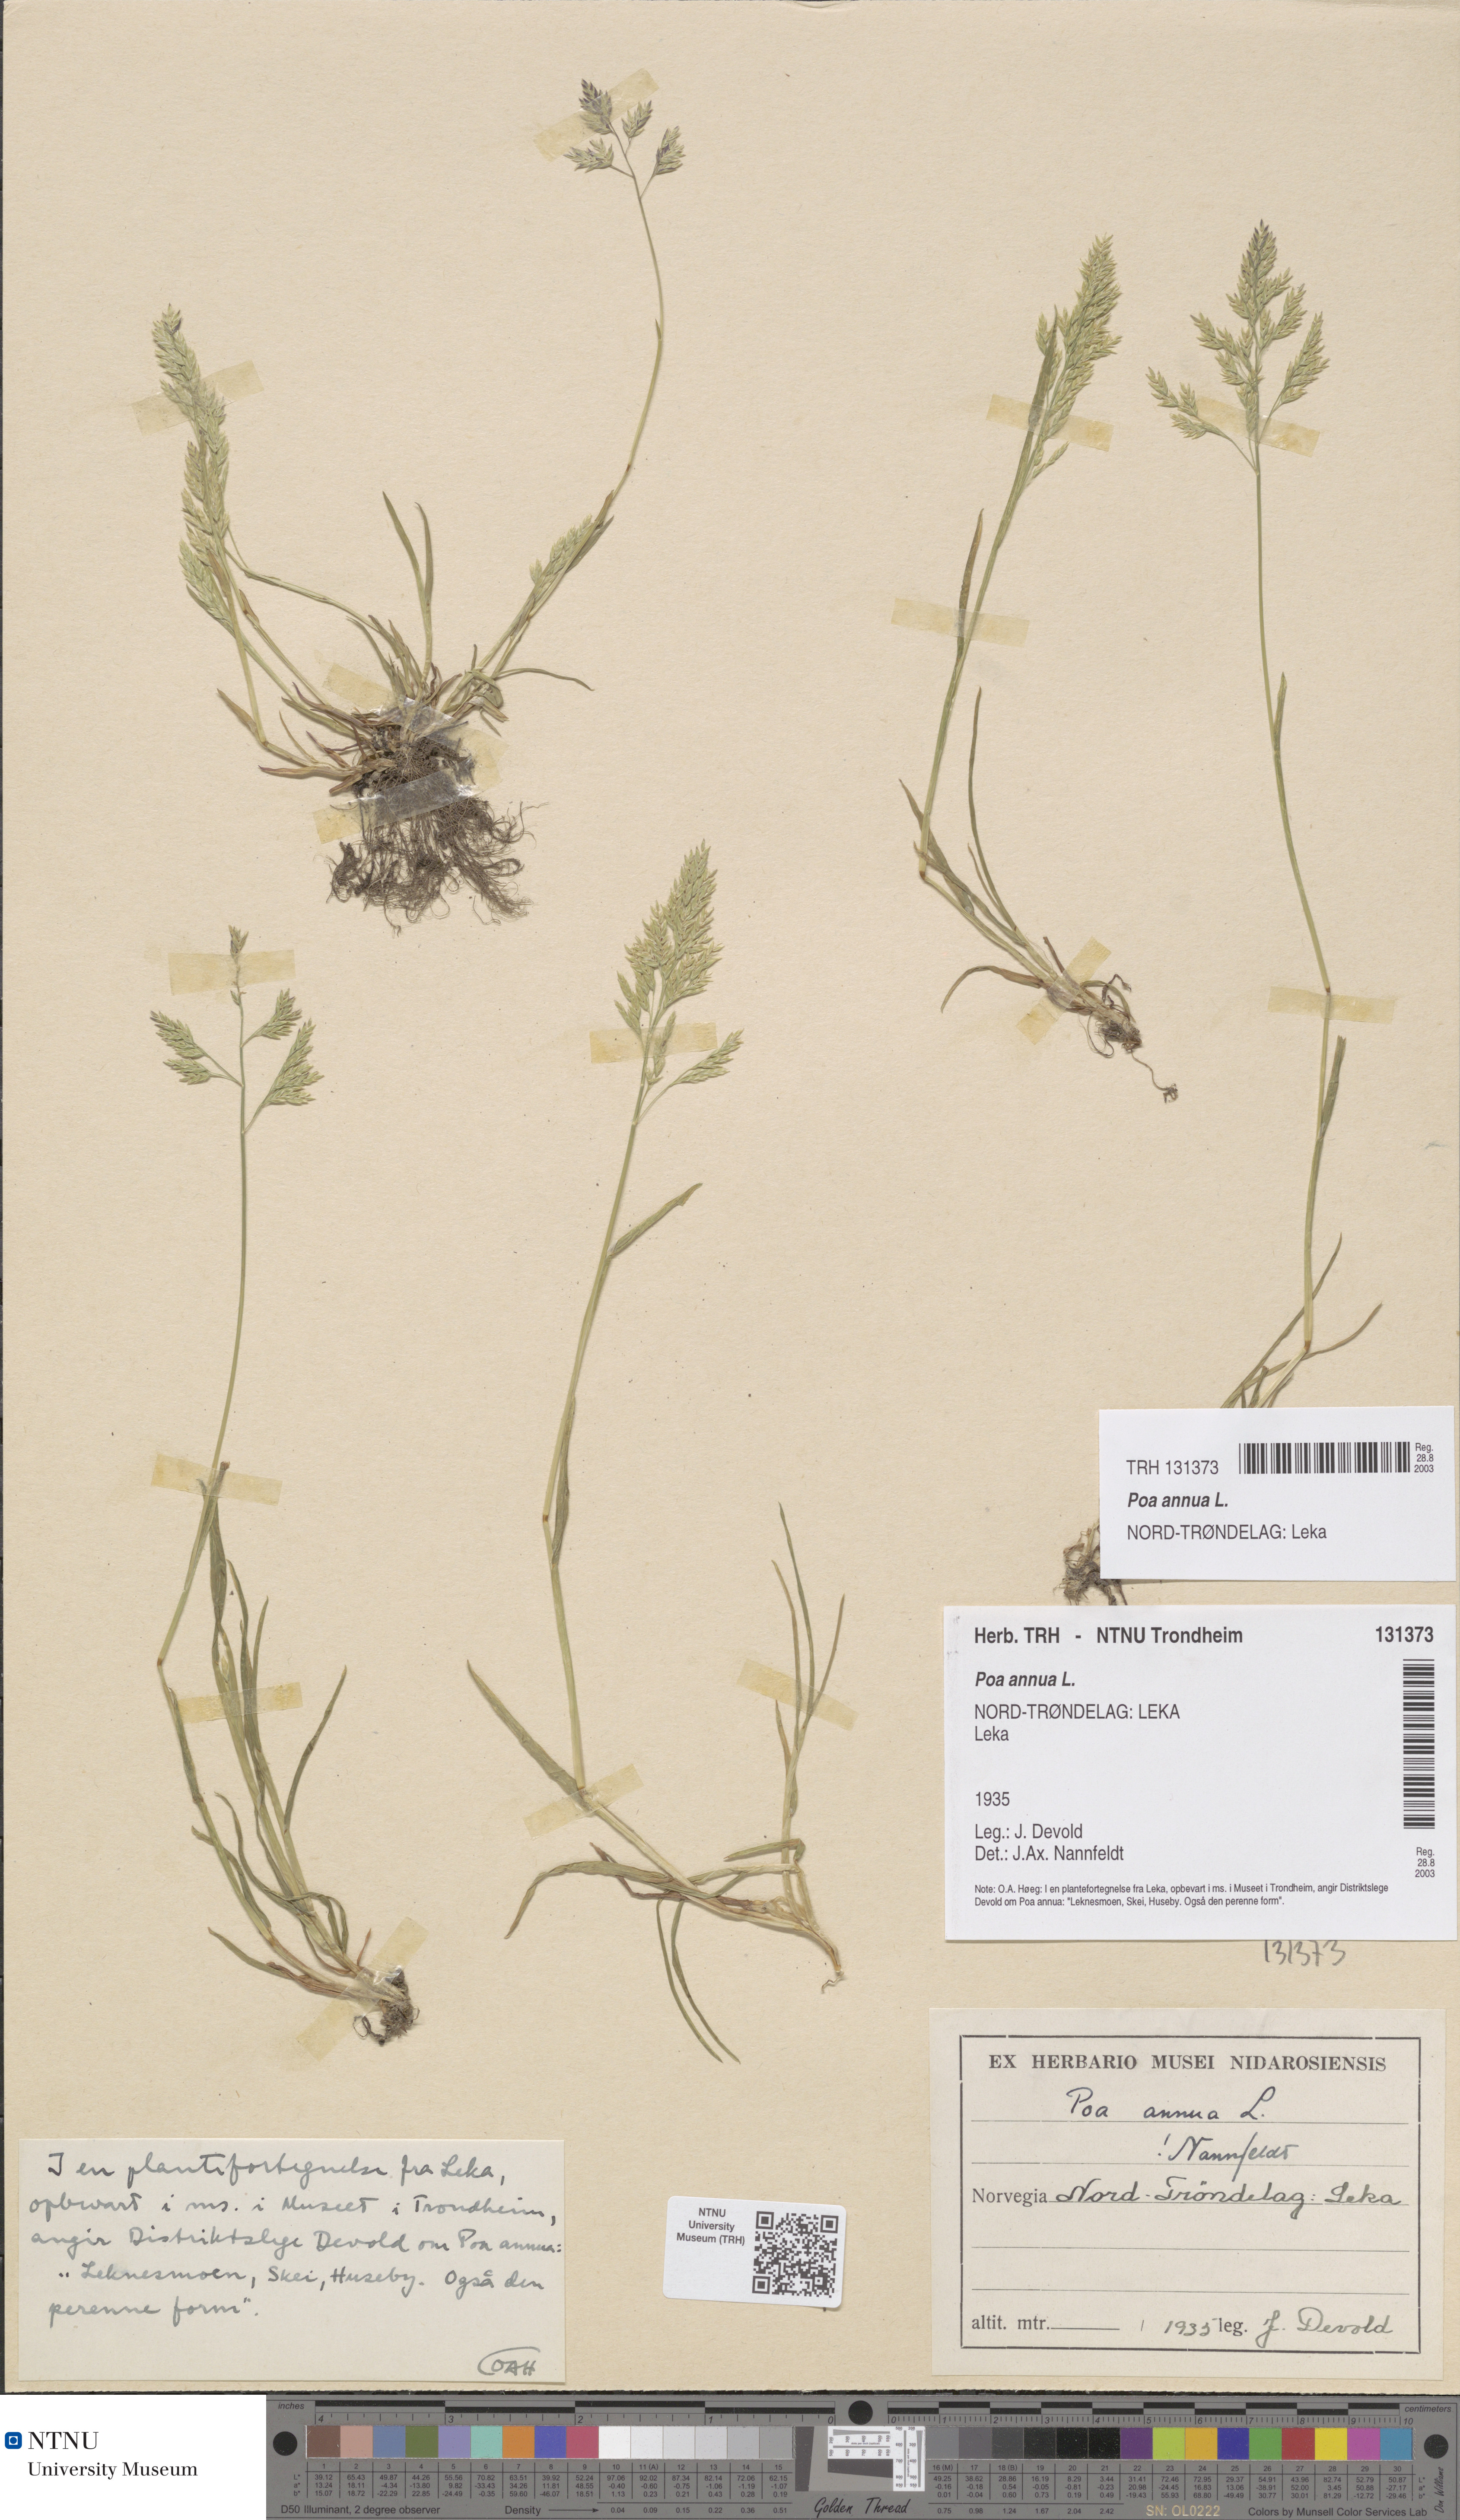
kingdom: Plantae
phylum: Tracheophyta
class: Liliopsida
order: Poales
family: Poaceae
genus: Poa
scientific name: Poa annua
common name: Annual bluegrass
